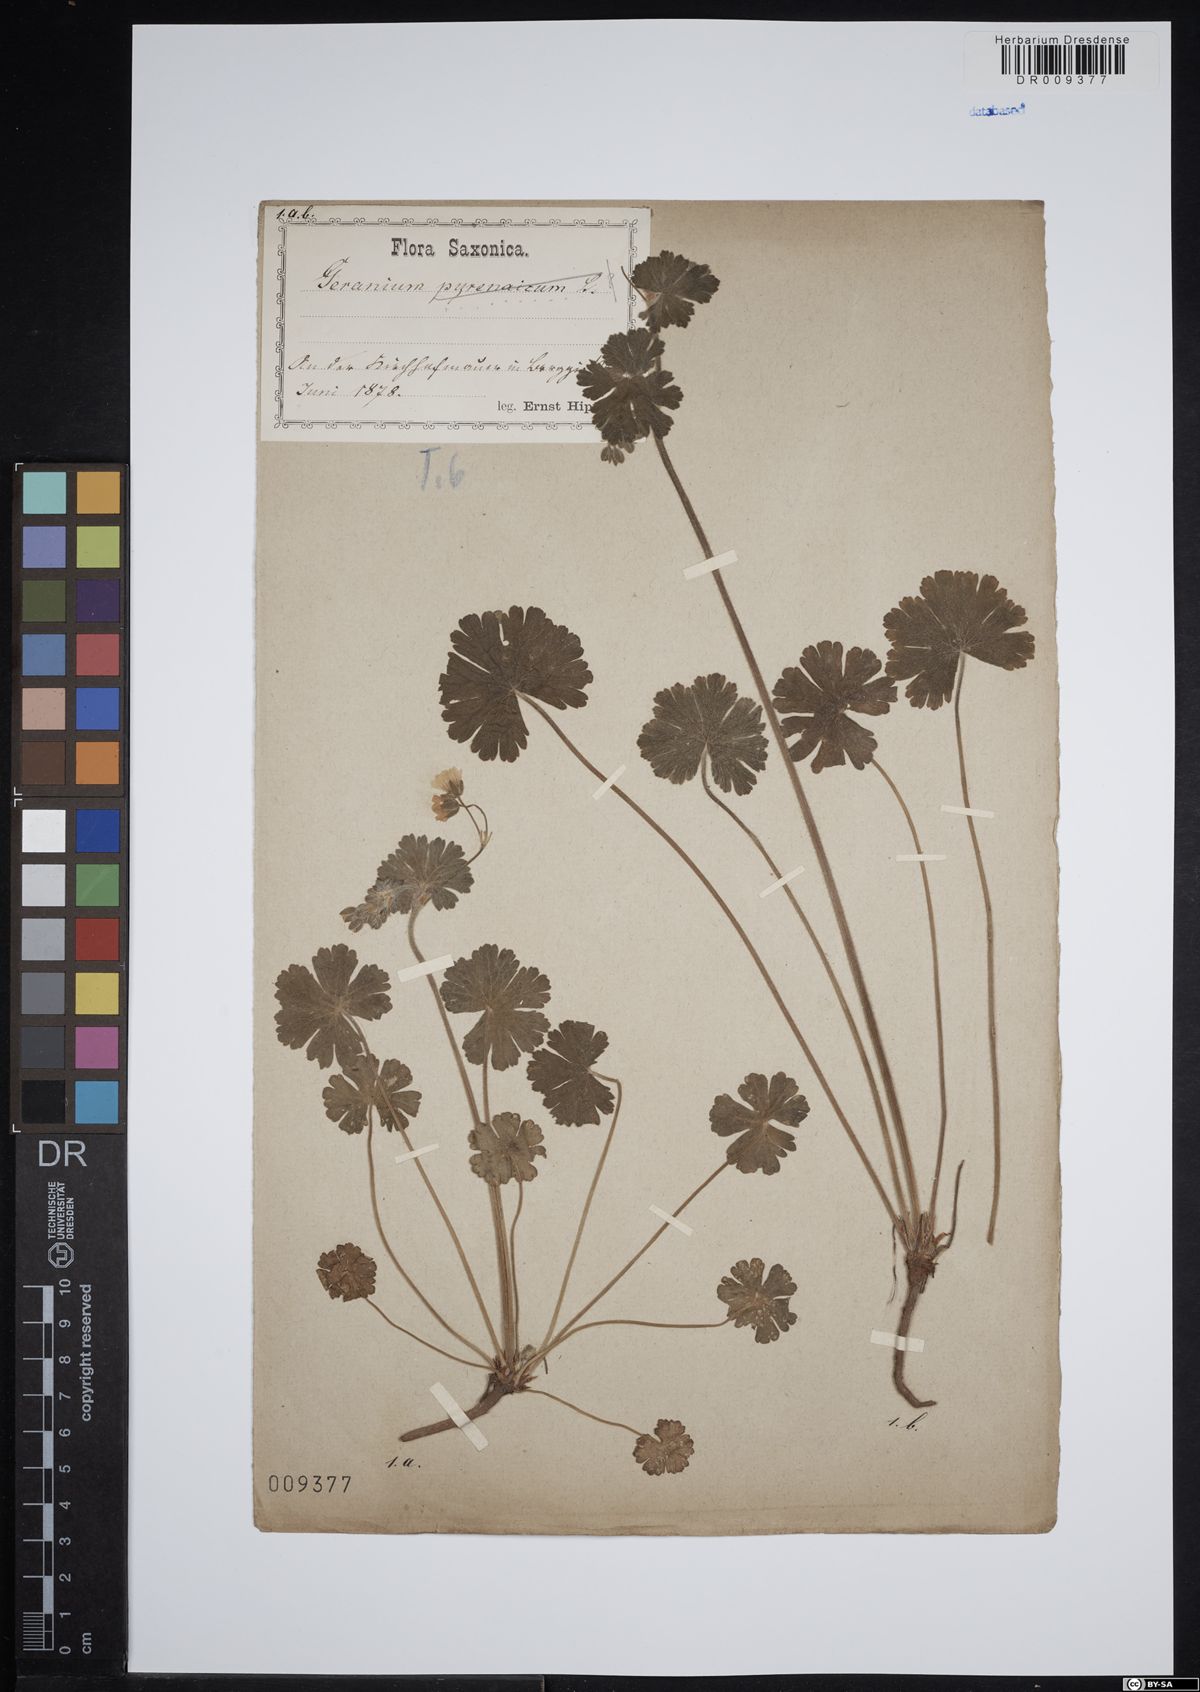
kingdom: Plantae
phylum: Tracheophyta
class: Magnoliopsida
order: Geraniales
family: Geraniaceae
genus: Geranium
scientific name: Geranium pyrenaicum
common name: Hedgerow crane's-bill
